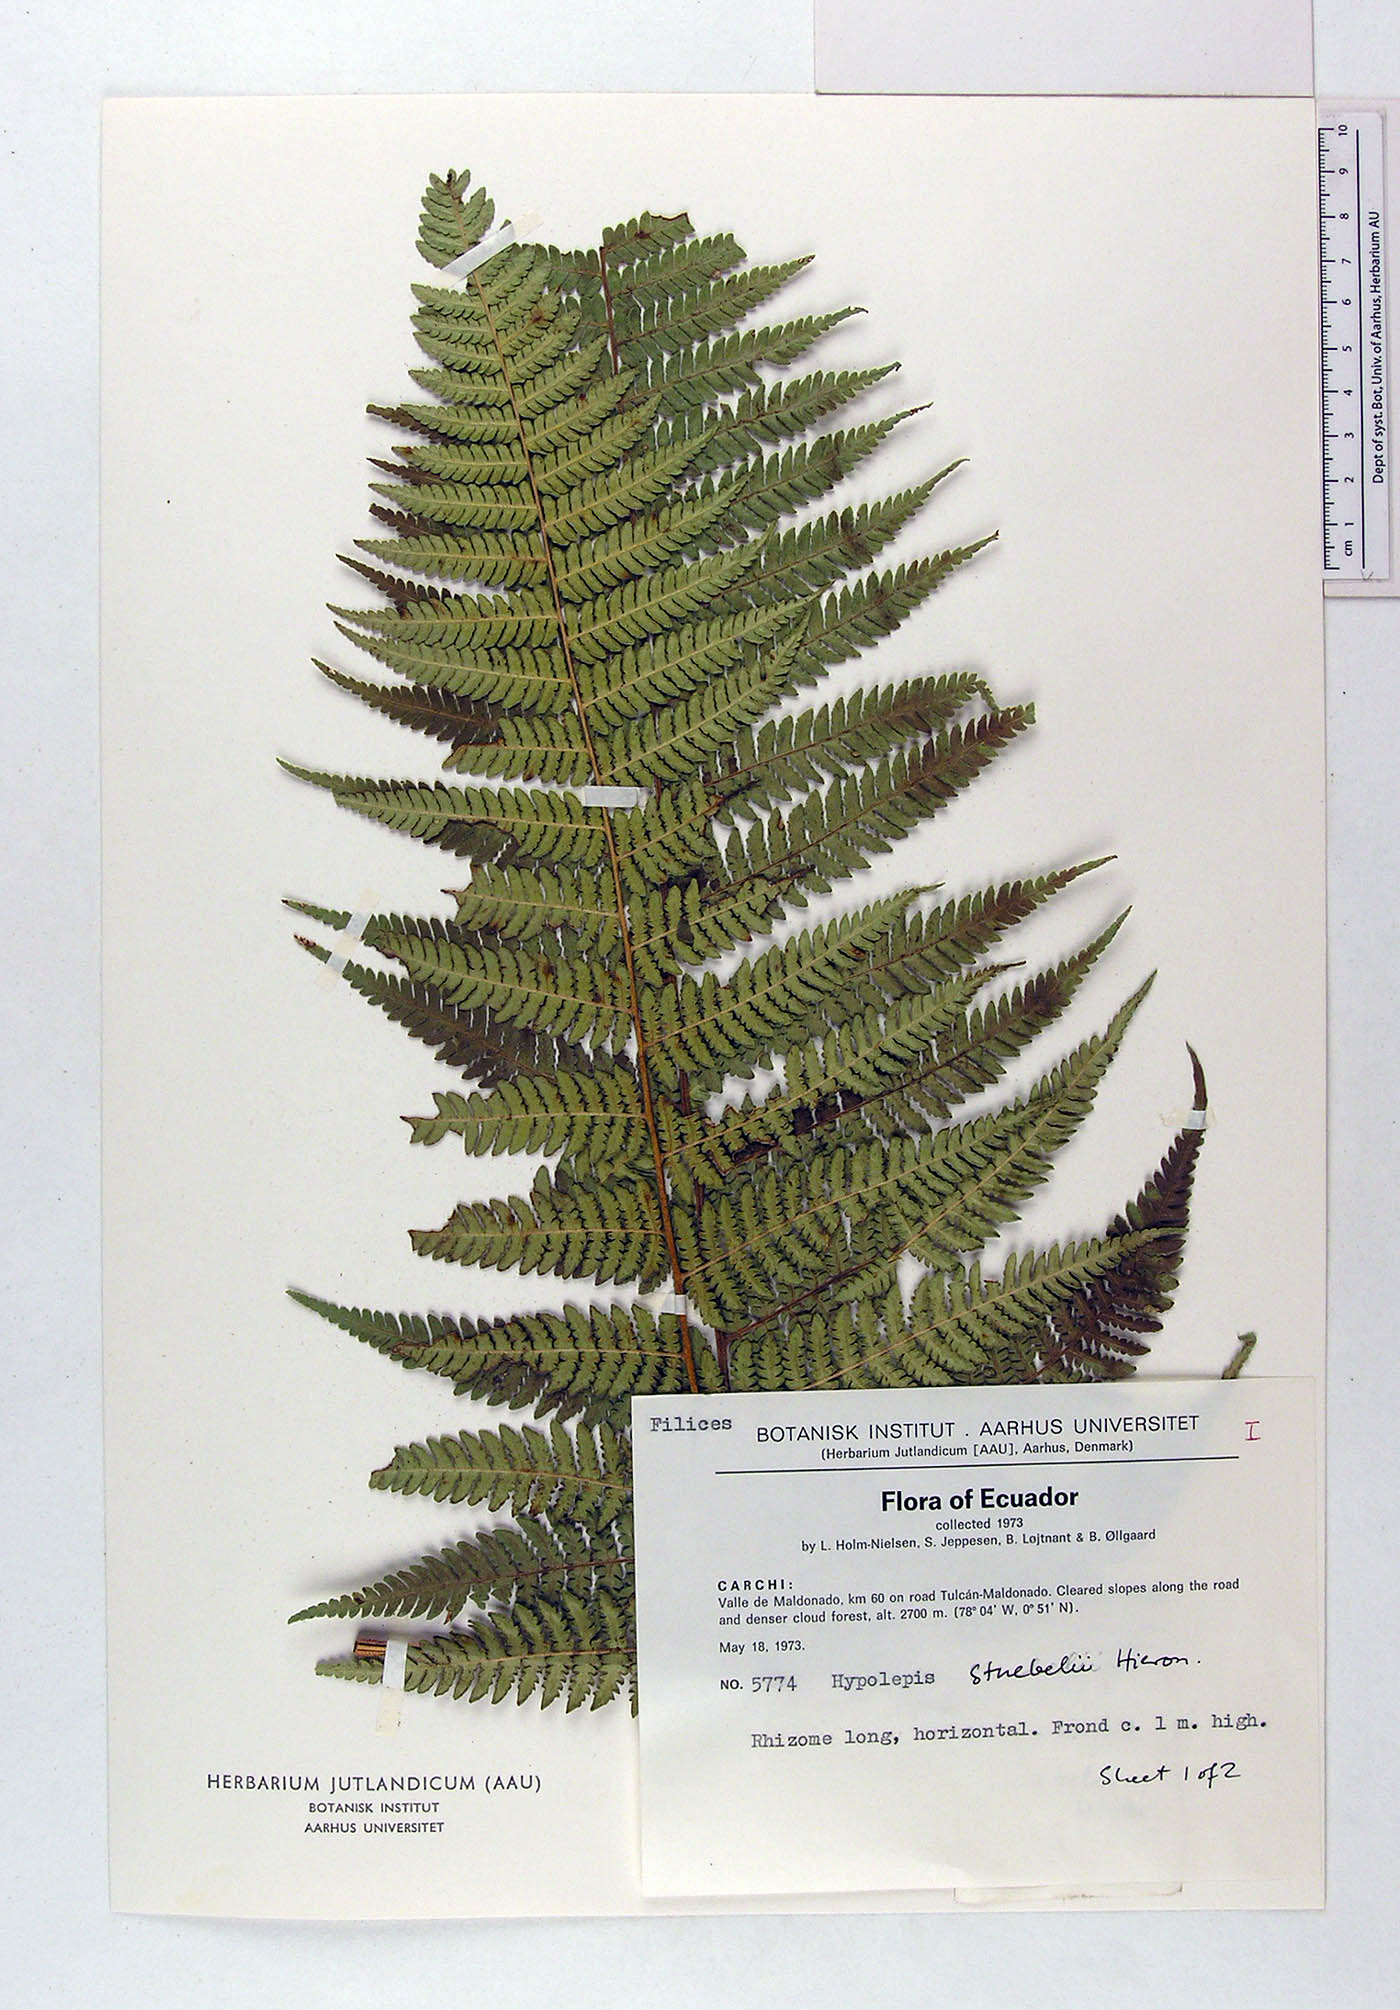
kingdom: Plantae
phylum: Tracheophyta
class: Polypodiopsida
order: Polypodiales
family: Dennstaedtiaceae
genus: Hypolepis
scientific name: Hypolepis stuebelii
